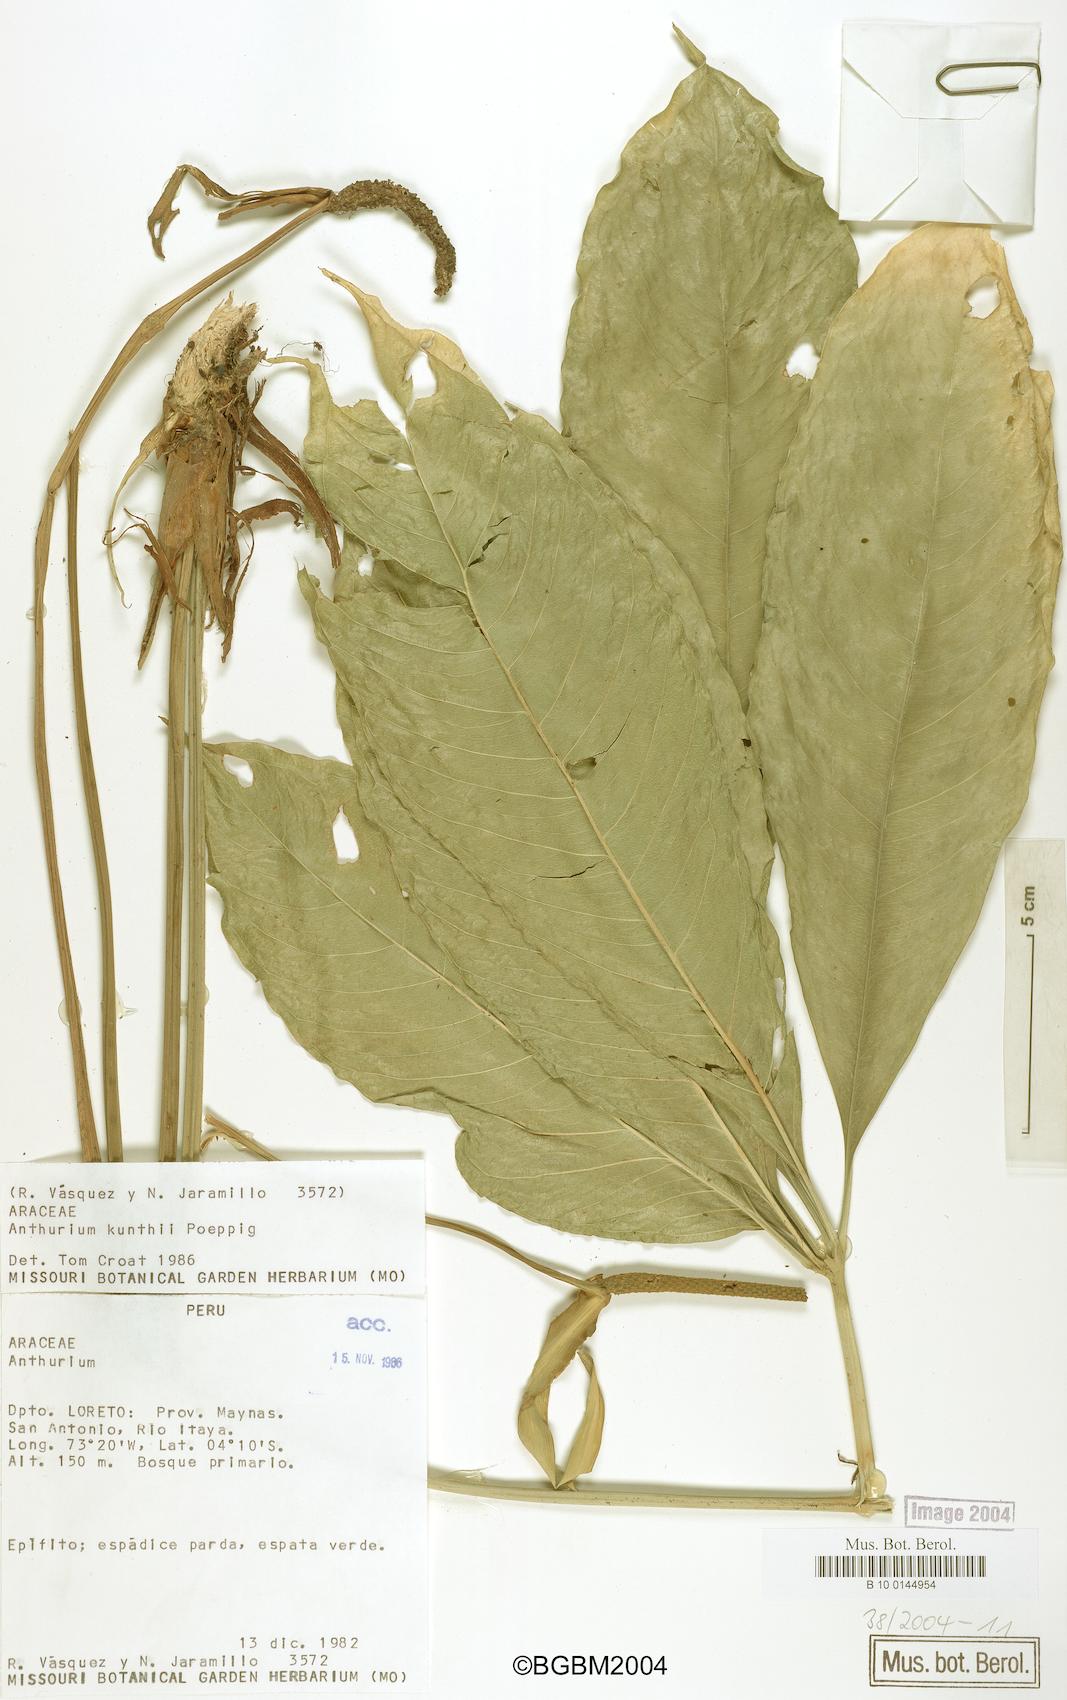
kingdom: Plantae
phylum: Tracheophyta
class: Liliopsida
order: Alismatales
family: Araceae
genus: Anthurium
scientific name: Anthurium kunthii
